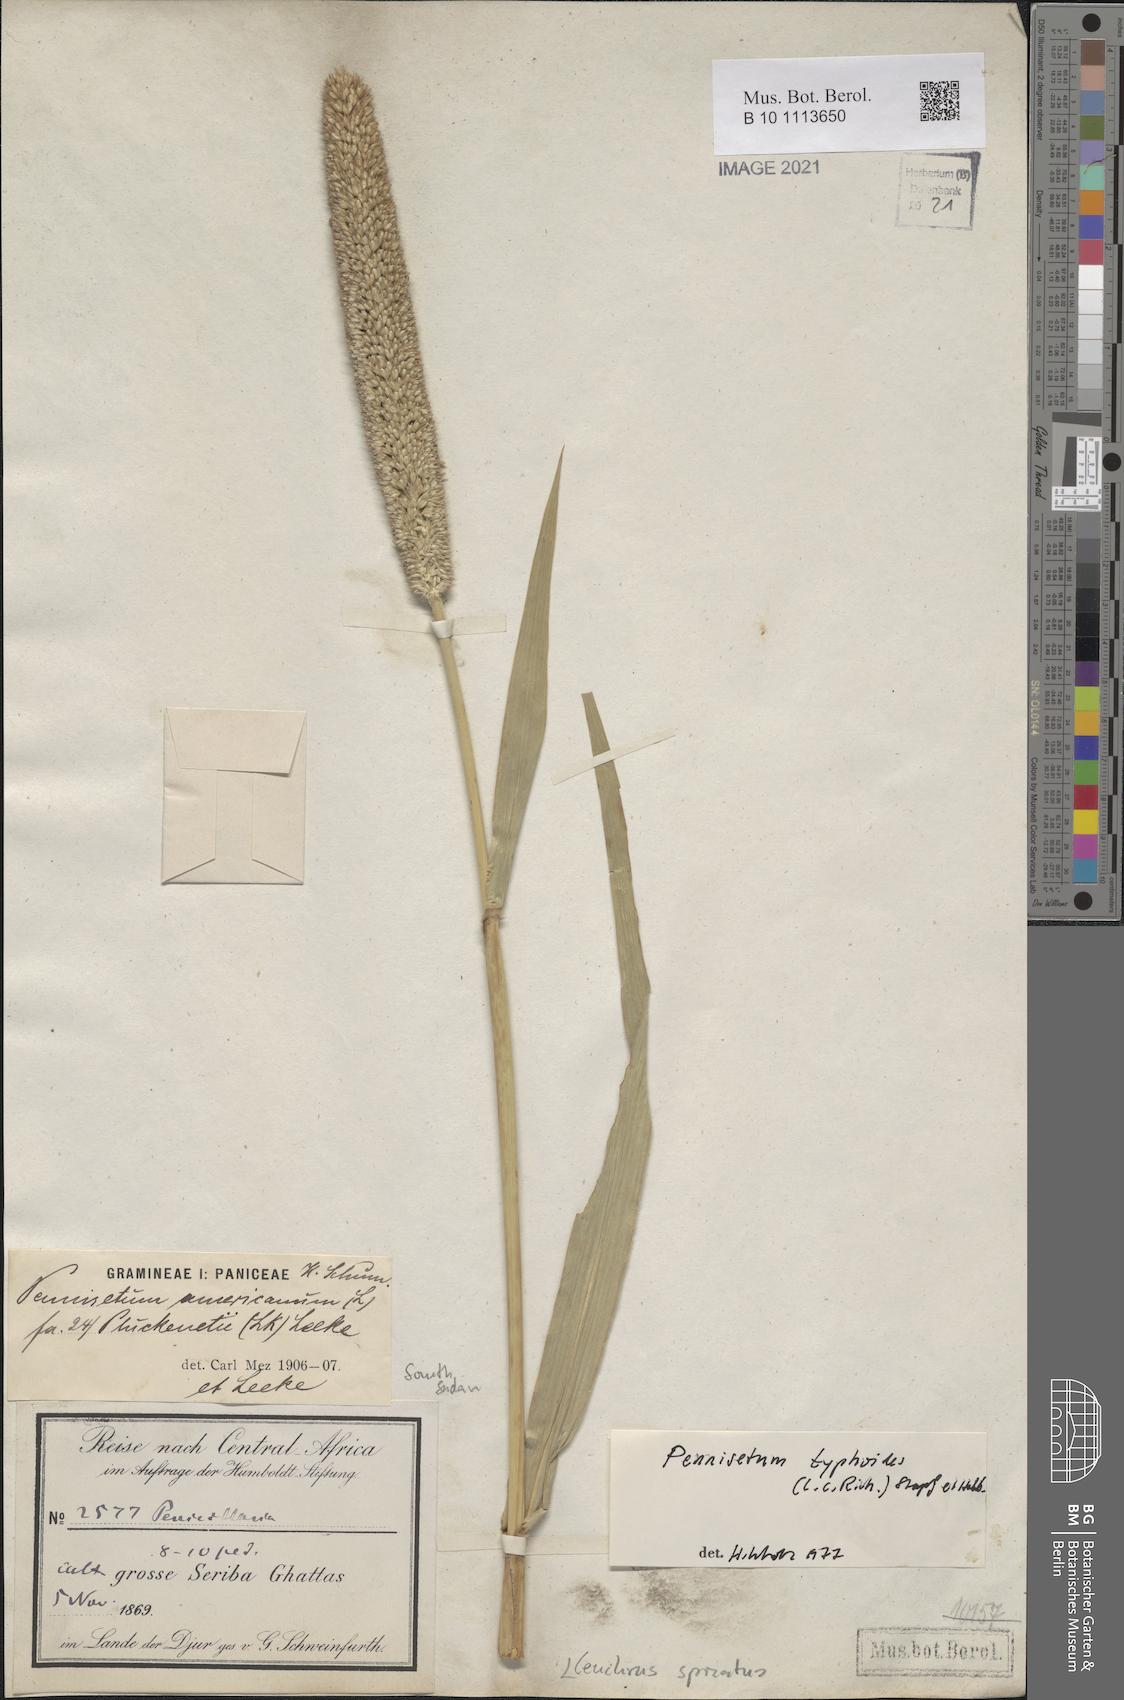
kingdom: Plantae
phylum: Tracheophyta
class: Liliopsida
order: Poales
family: Poaceae
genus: Cenchrus
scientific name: Cenchrus americanus
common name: Pearl millet
